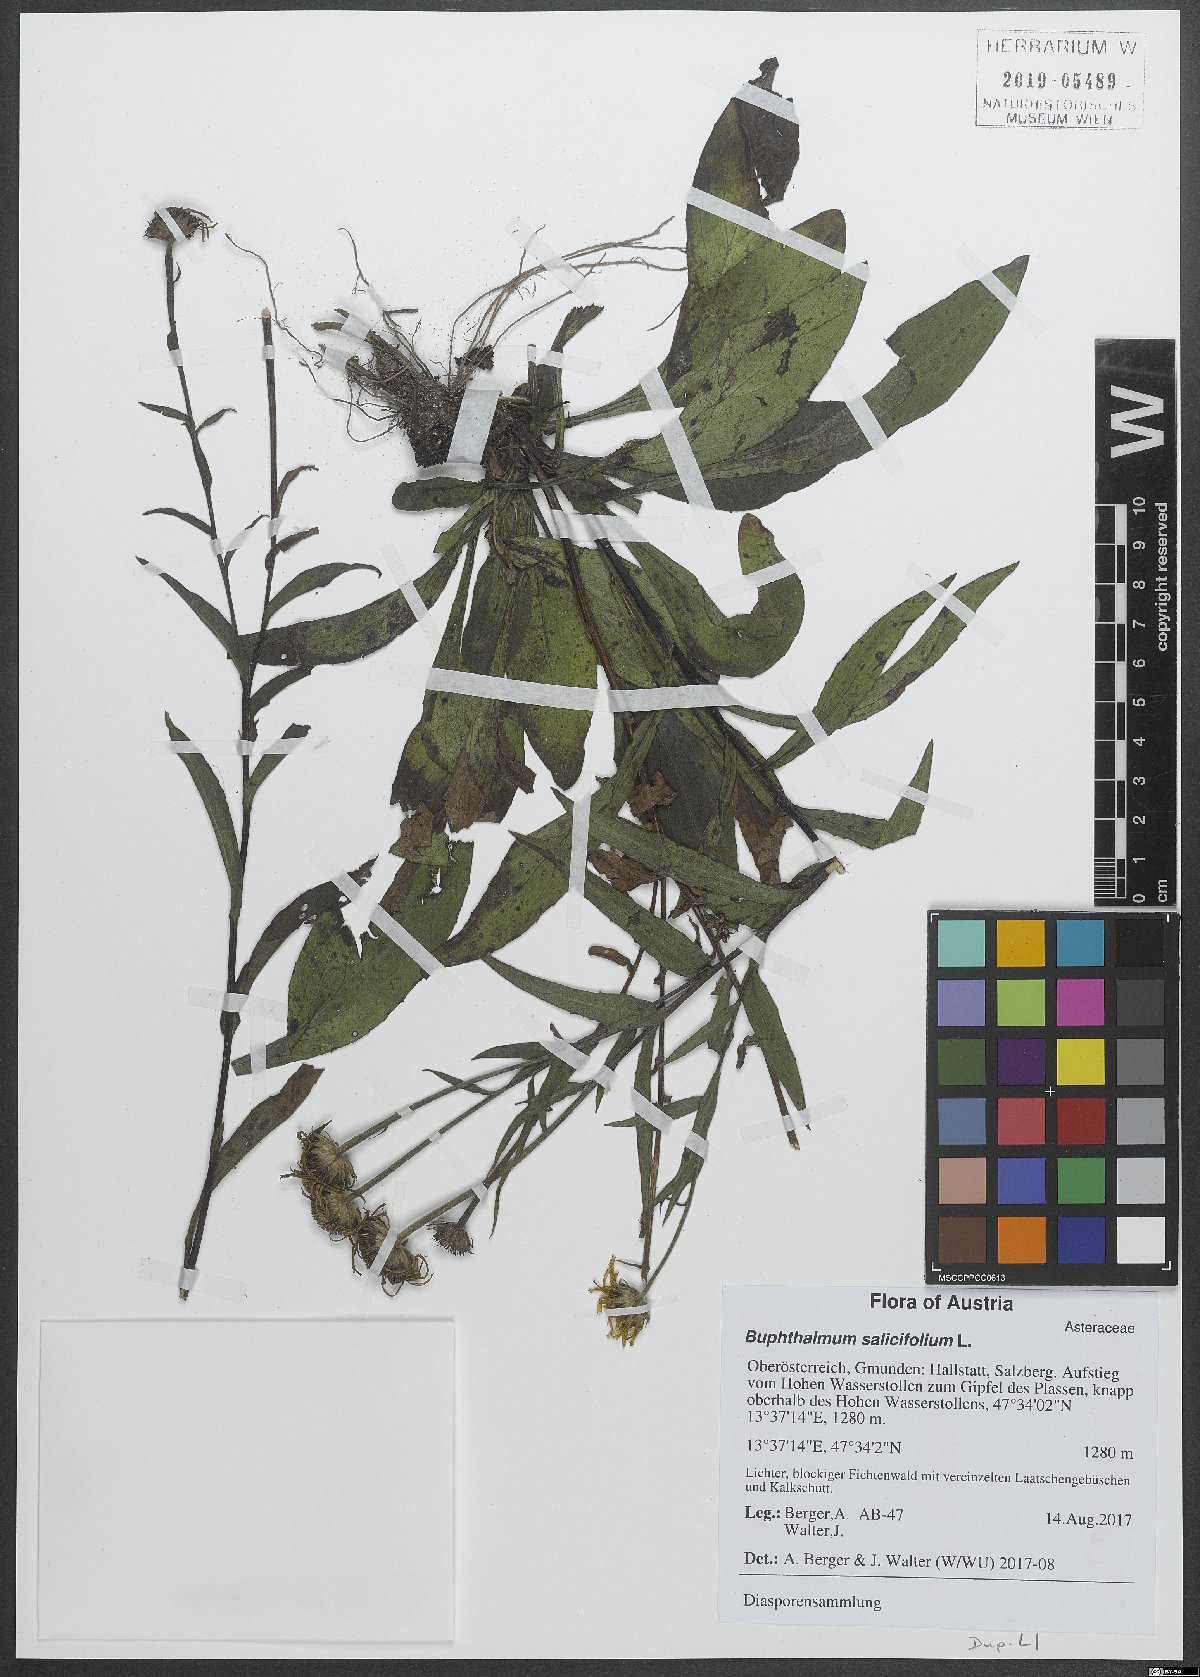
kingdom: Plantae
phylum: Tracheophyta
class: Magnoliopsida
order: Asterales
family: Asteraceae
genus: Buphthalmum
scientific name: Buphthalmum salicifolium
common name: Willow-leaved yellow-oxeye
